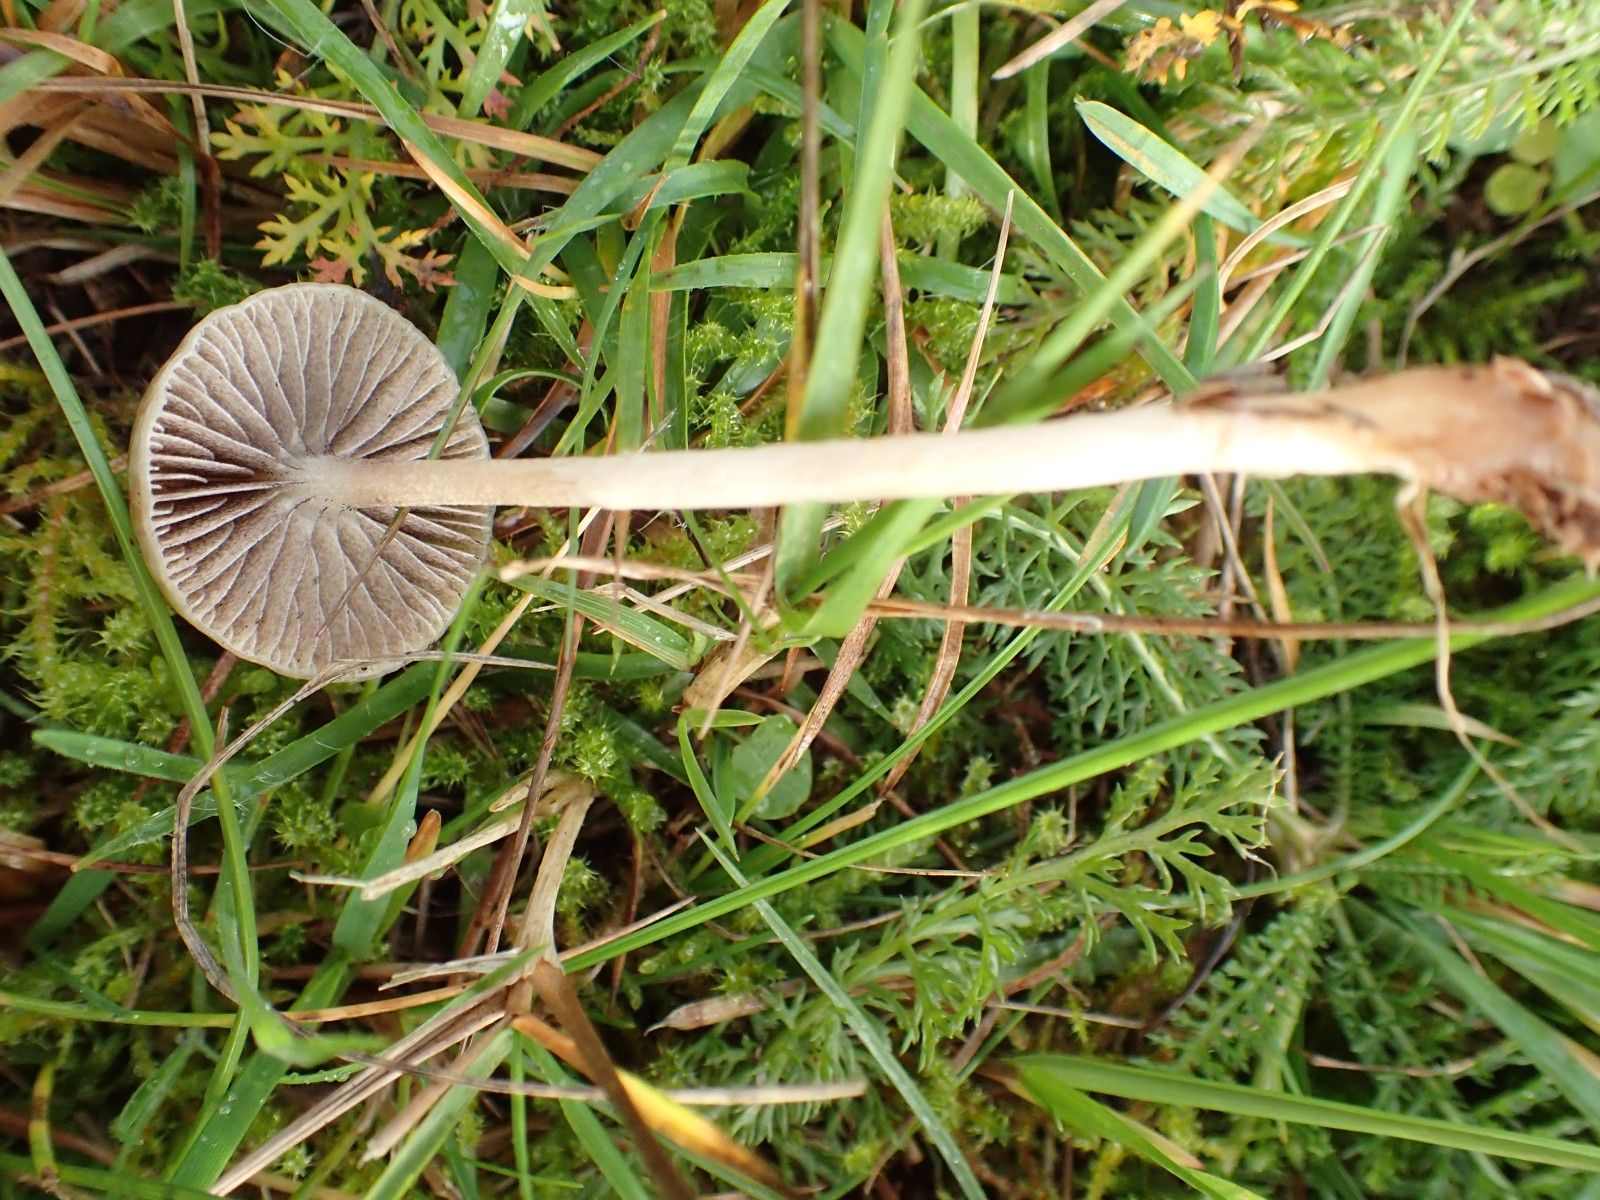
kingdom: Fungi
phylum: Basidiomycota
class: Agaricomycetes
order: Agaricales
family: Strophariaceae
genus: Protostropharia
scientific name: Protostropharia semiglobata
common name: halvkugleformet bredblad
